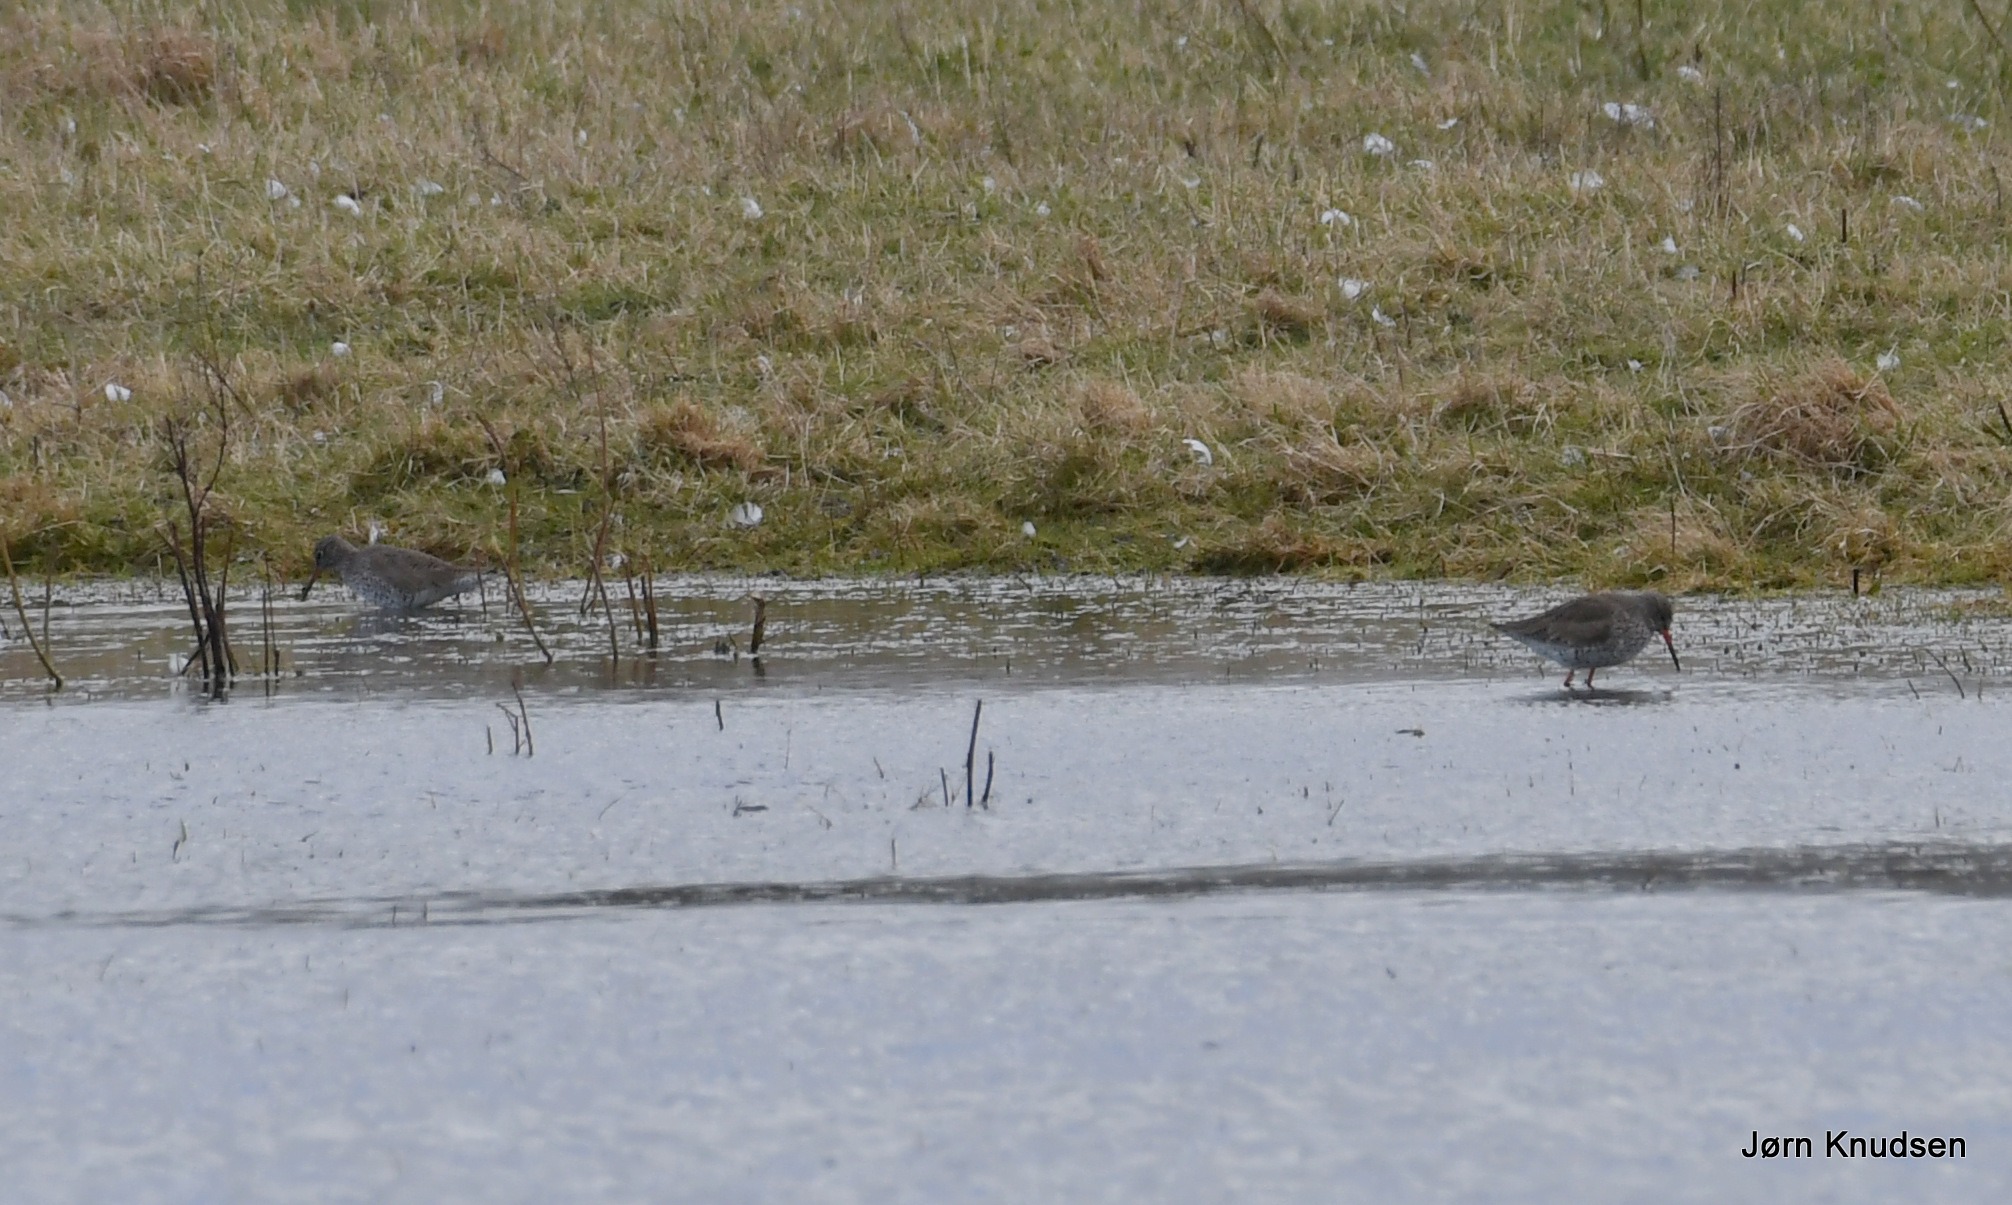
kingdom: Animalia
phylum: Chordata
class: Aves
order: Charadriiformes
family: Scolopacidae
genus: Tringa
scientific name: Tringa totanus
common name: Rødben
